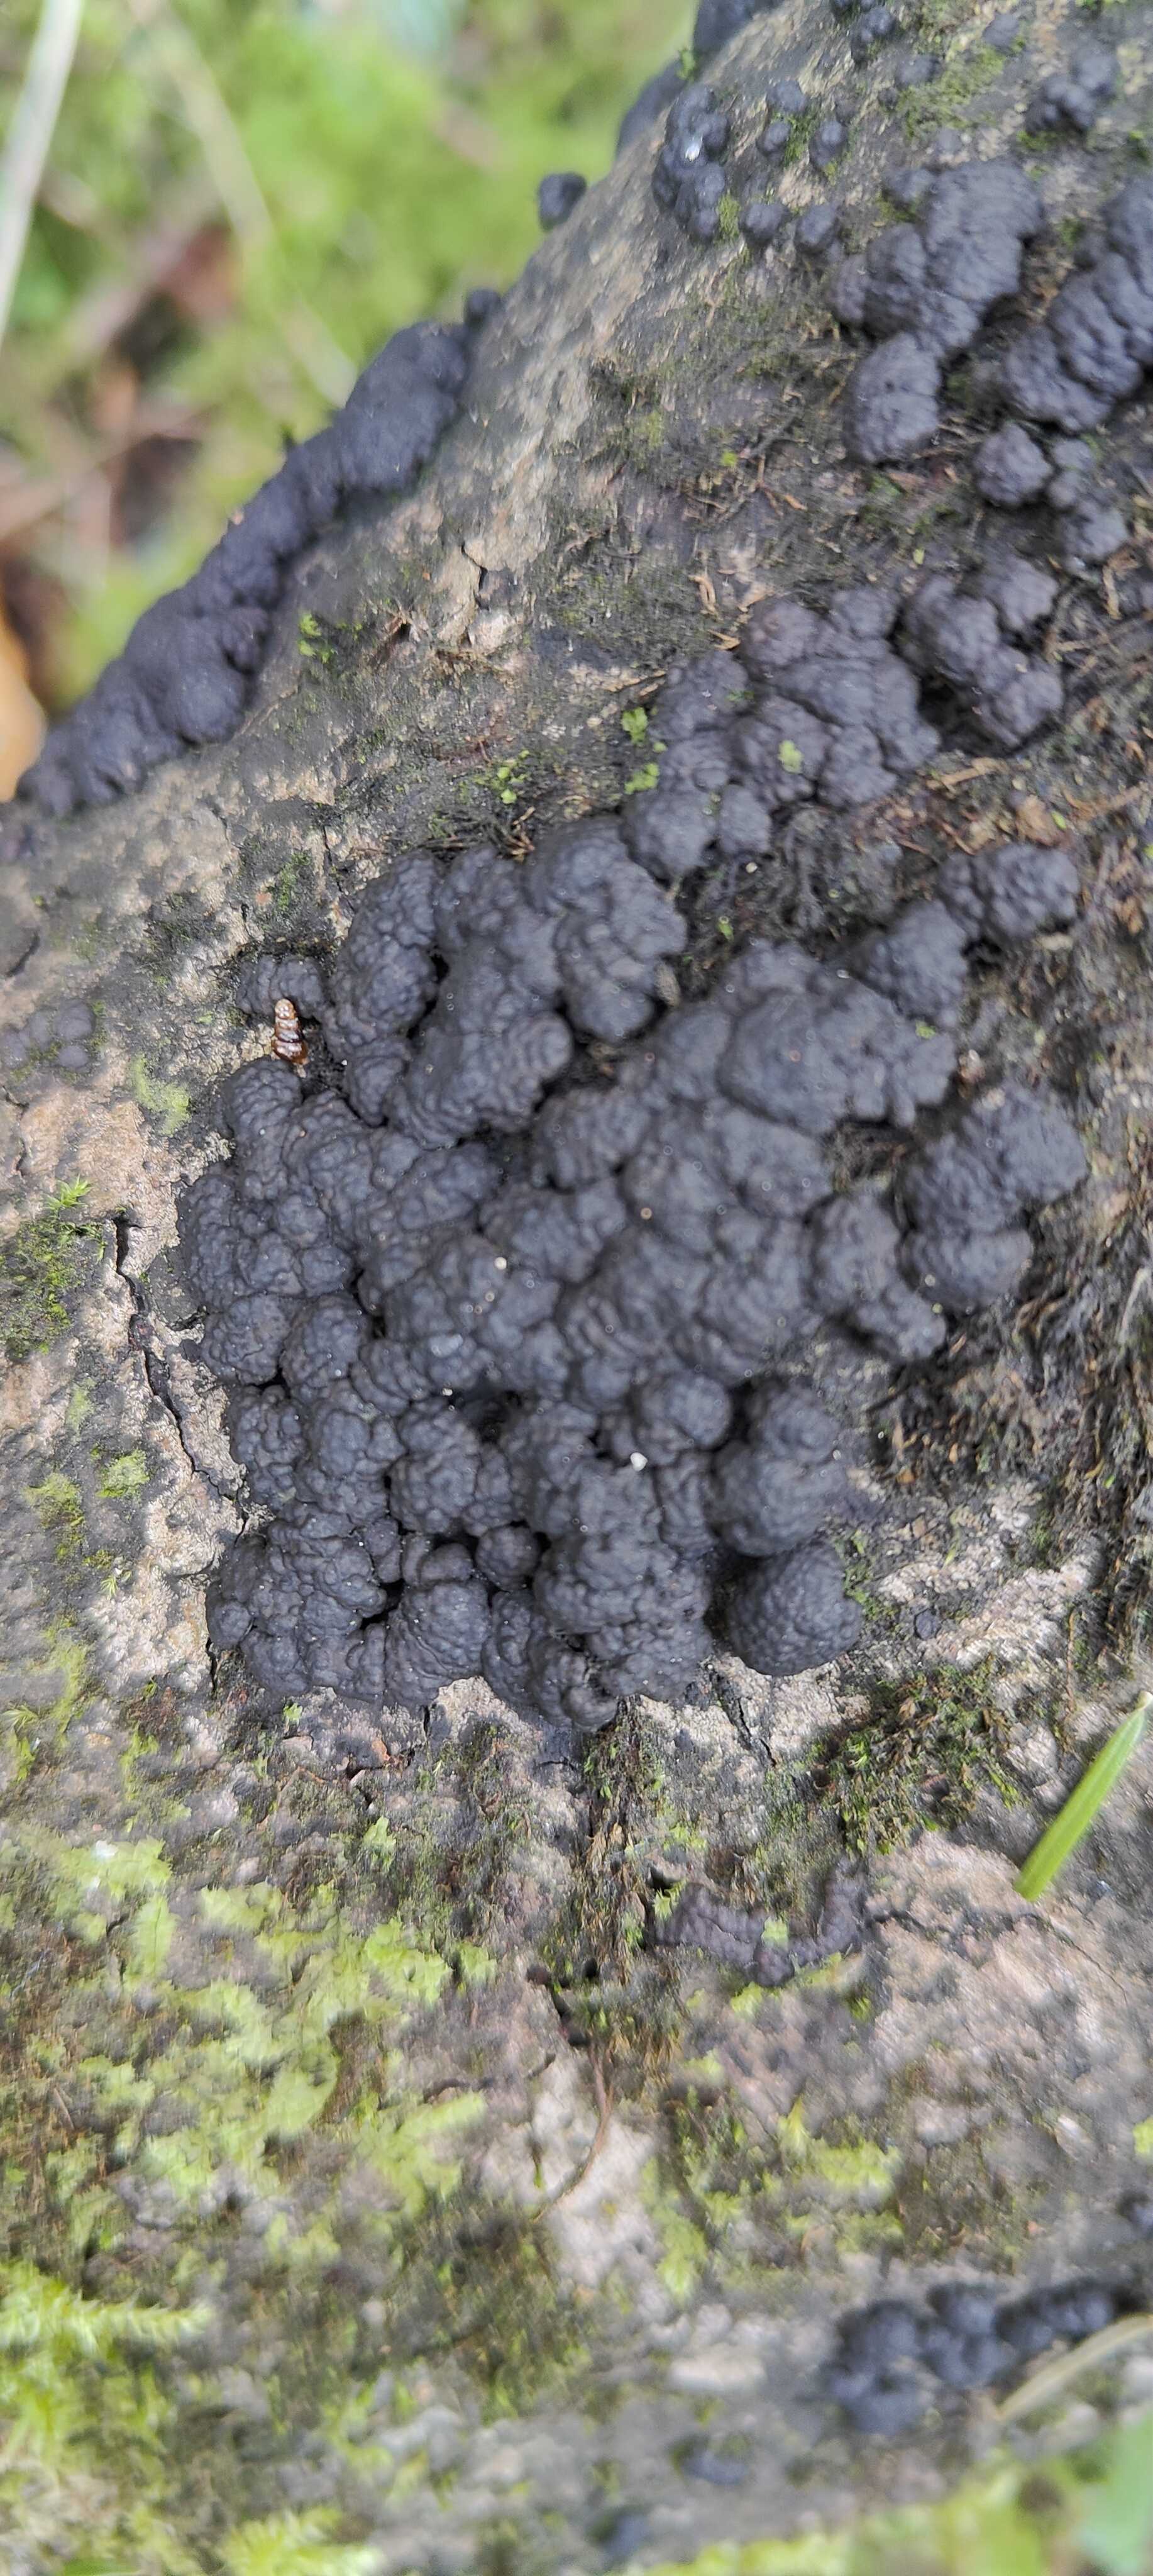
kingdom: Fungi
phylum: Ascomycota
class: Sordariomycetes
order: Xylariales
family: Hypoxylaceae
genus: Jackrogersella
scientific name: Jackrogersella cohaerens
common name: sammenflydende kulbær
